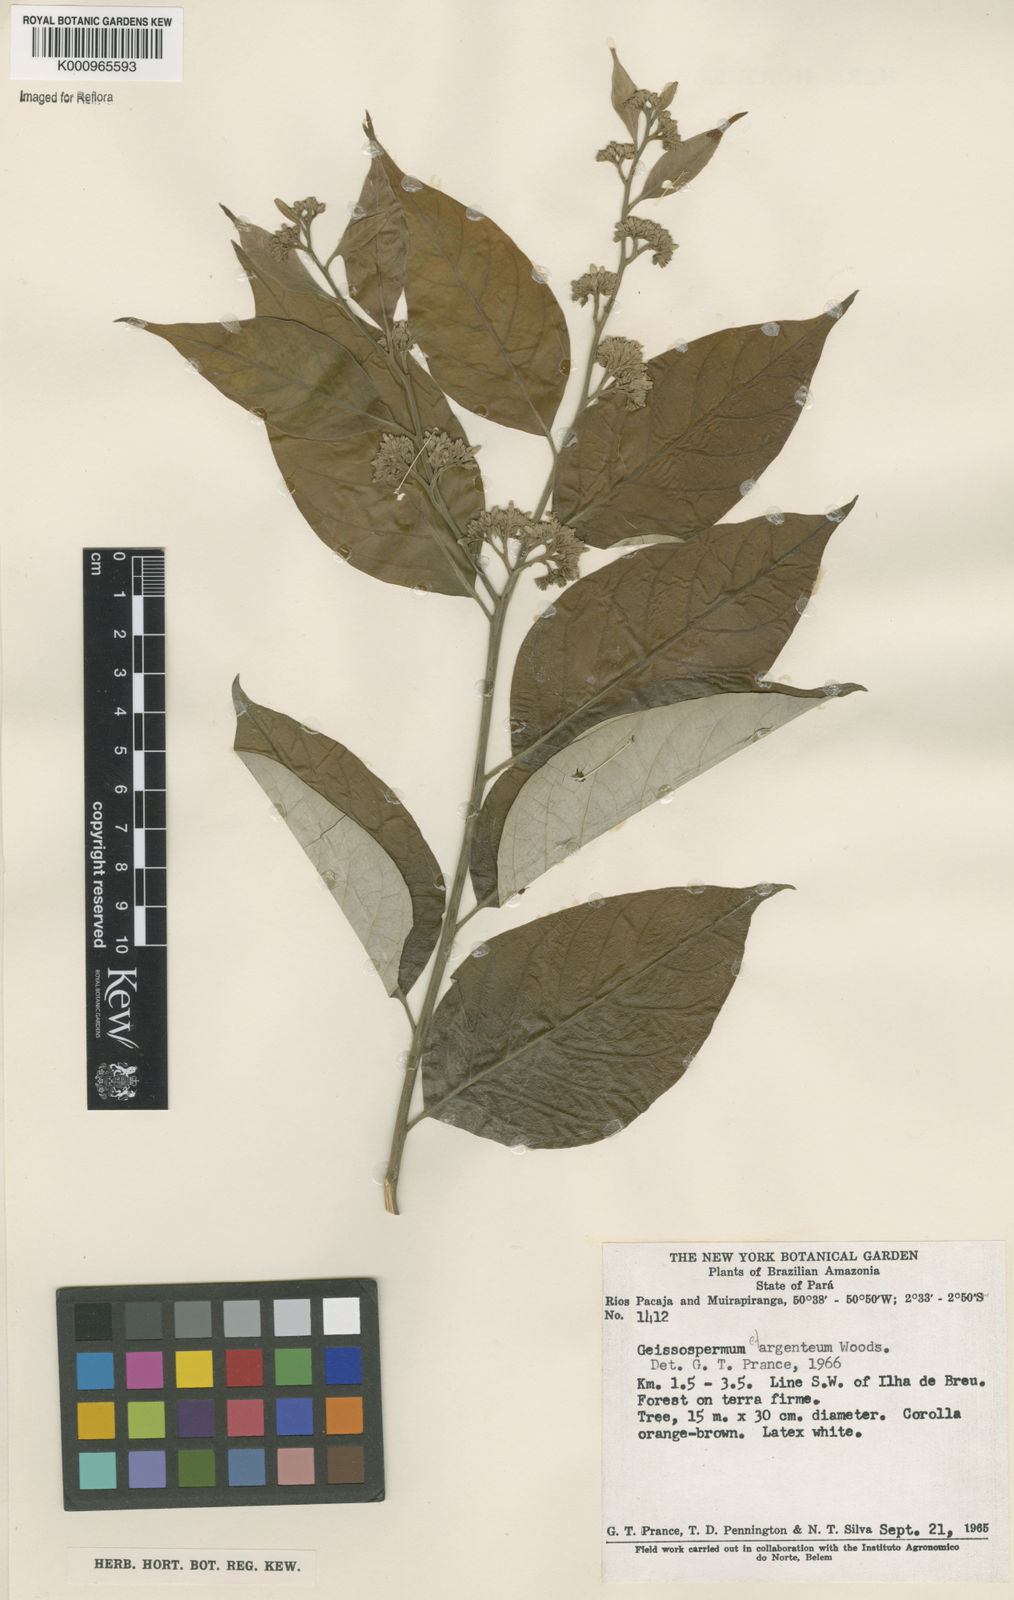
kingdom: Plantae
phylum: Tracheophyta
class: Magnoliopsida
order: Gentianales
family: Apocynaceae
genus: Geissospermum
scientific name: Geissospermum argenteum
